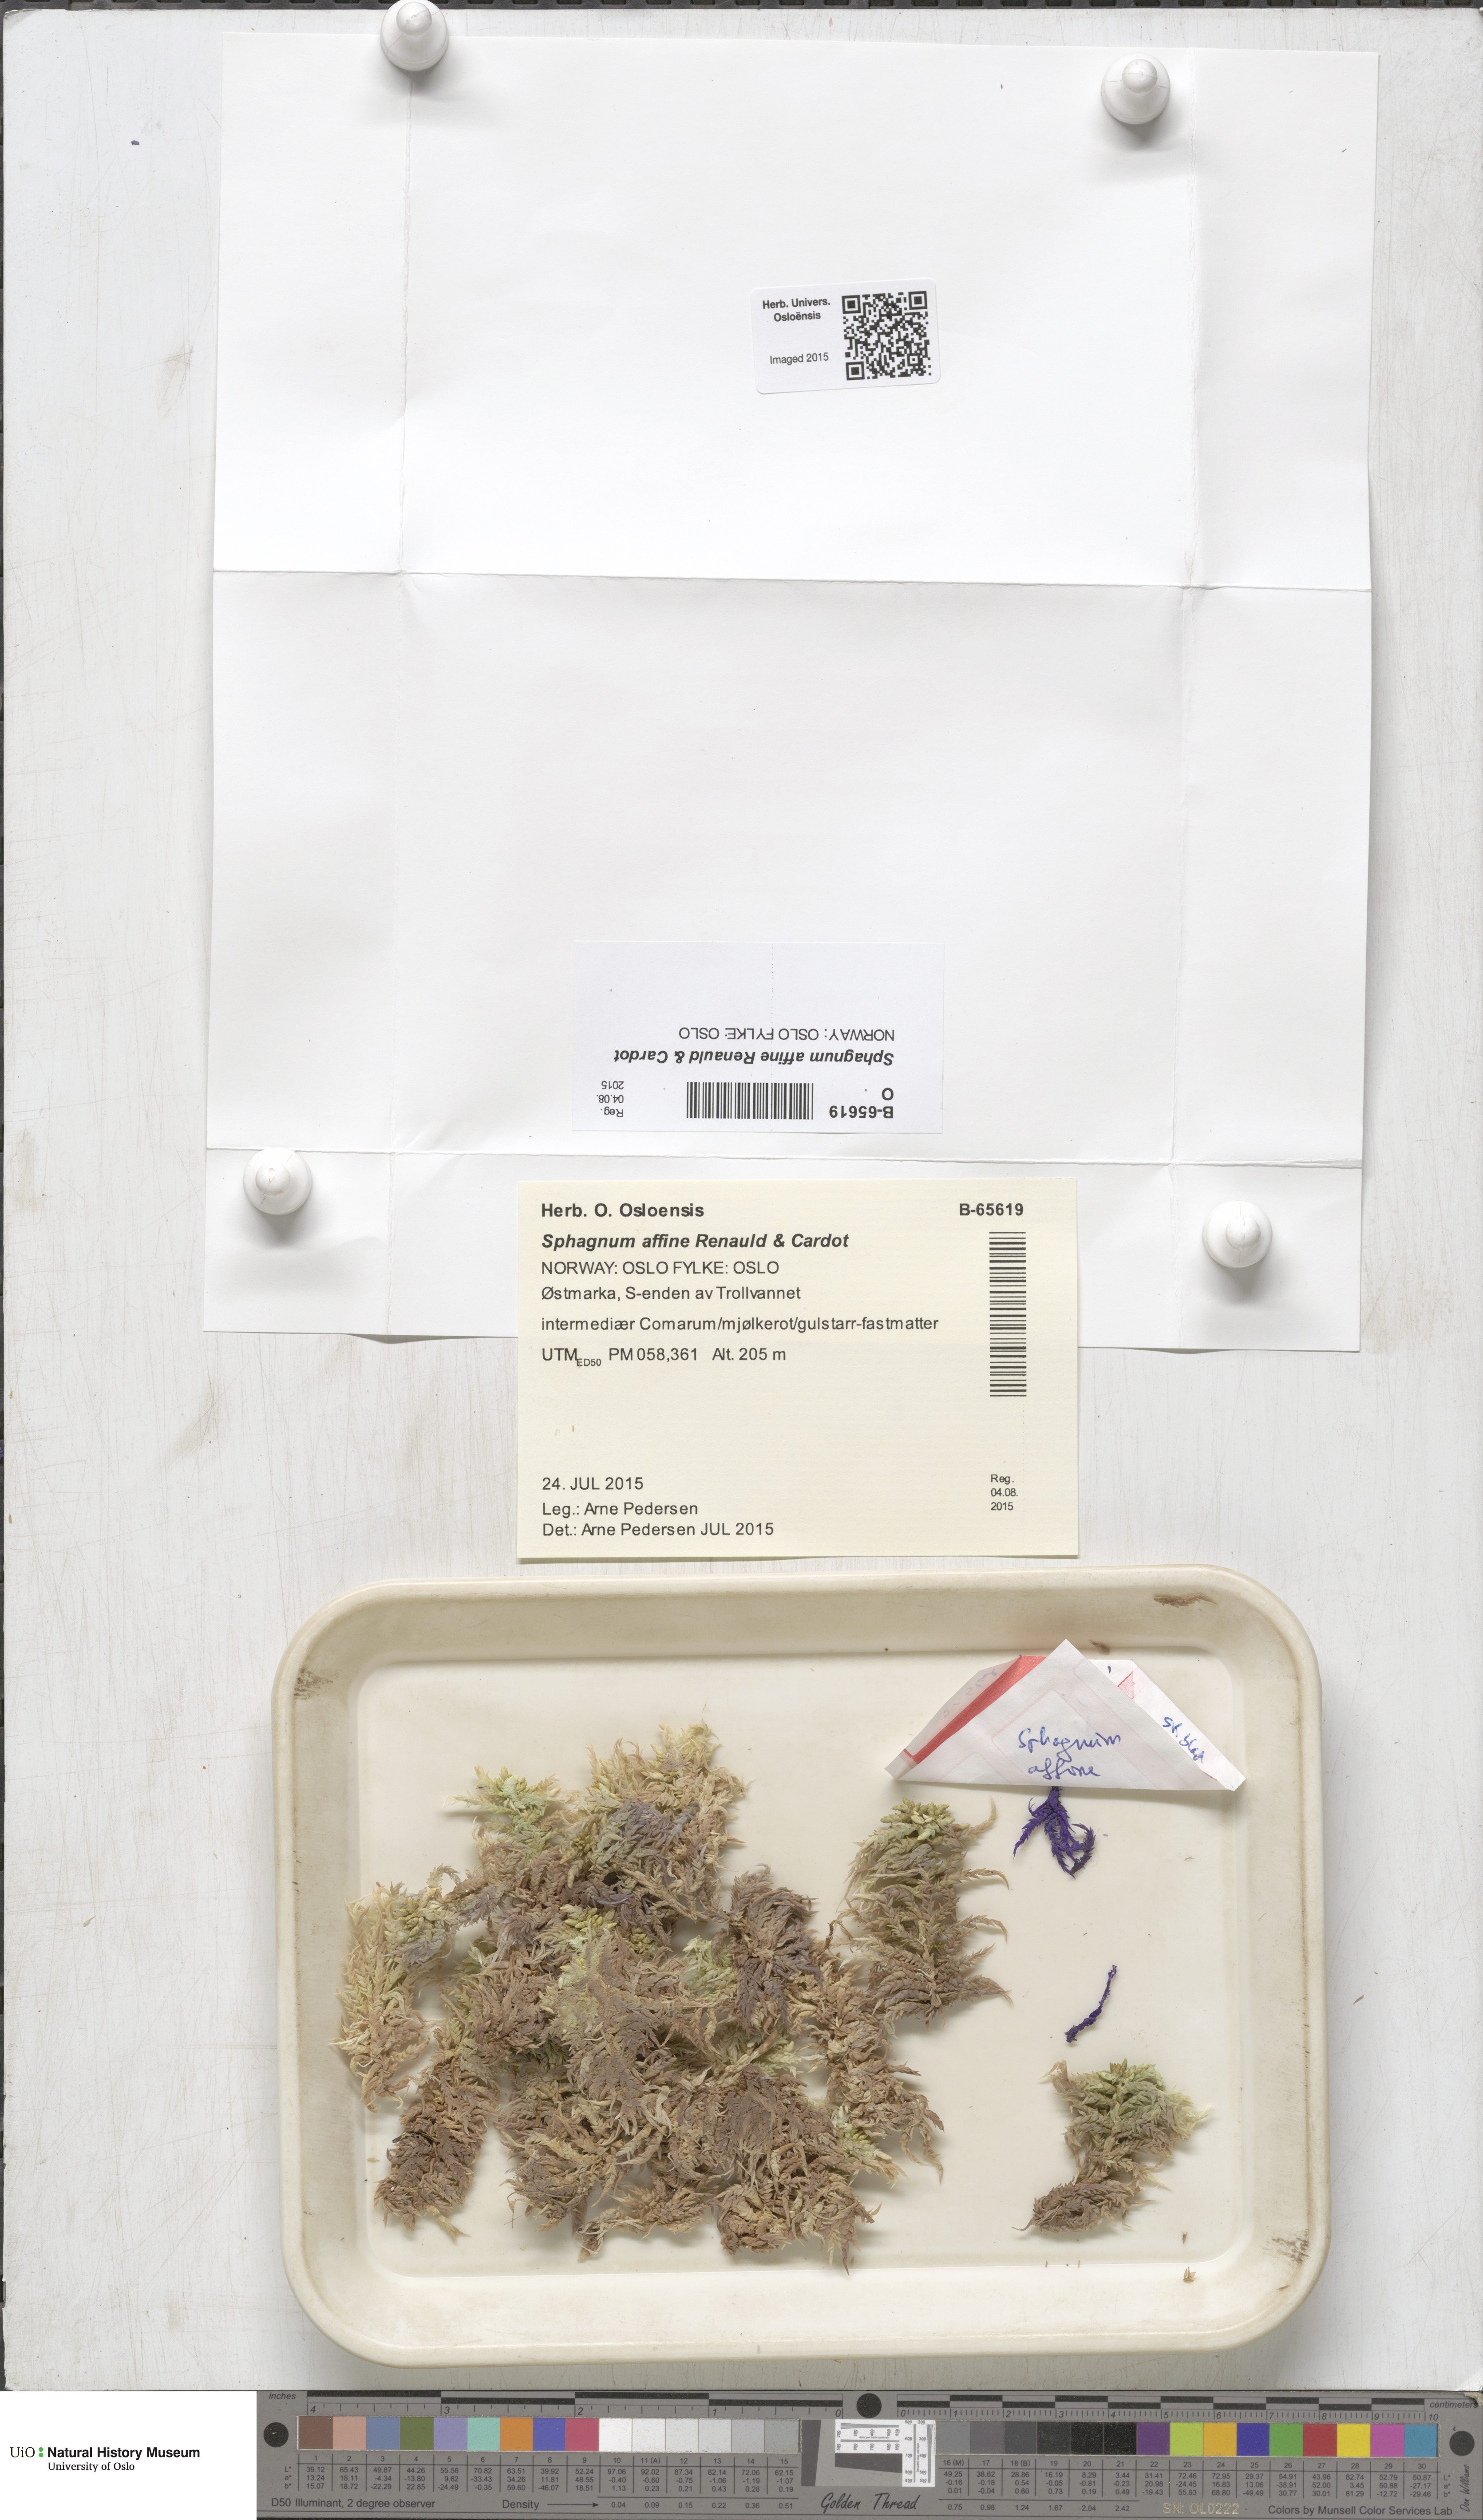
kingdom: Plantae
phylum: Bryophyta
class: Sphagnopsida
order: Sphagnales
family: Sphagnaceae
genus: Sphagnum
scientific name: Sphagnum affine
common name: Imbricate peat moss
